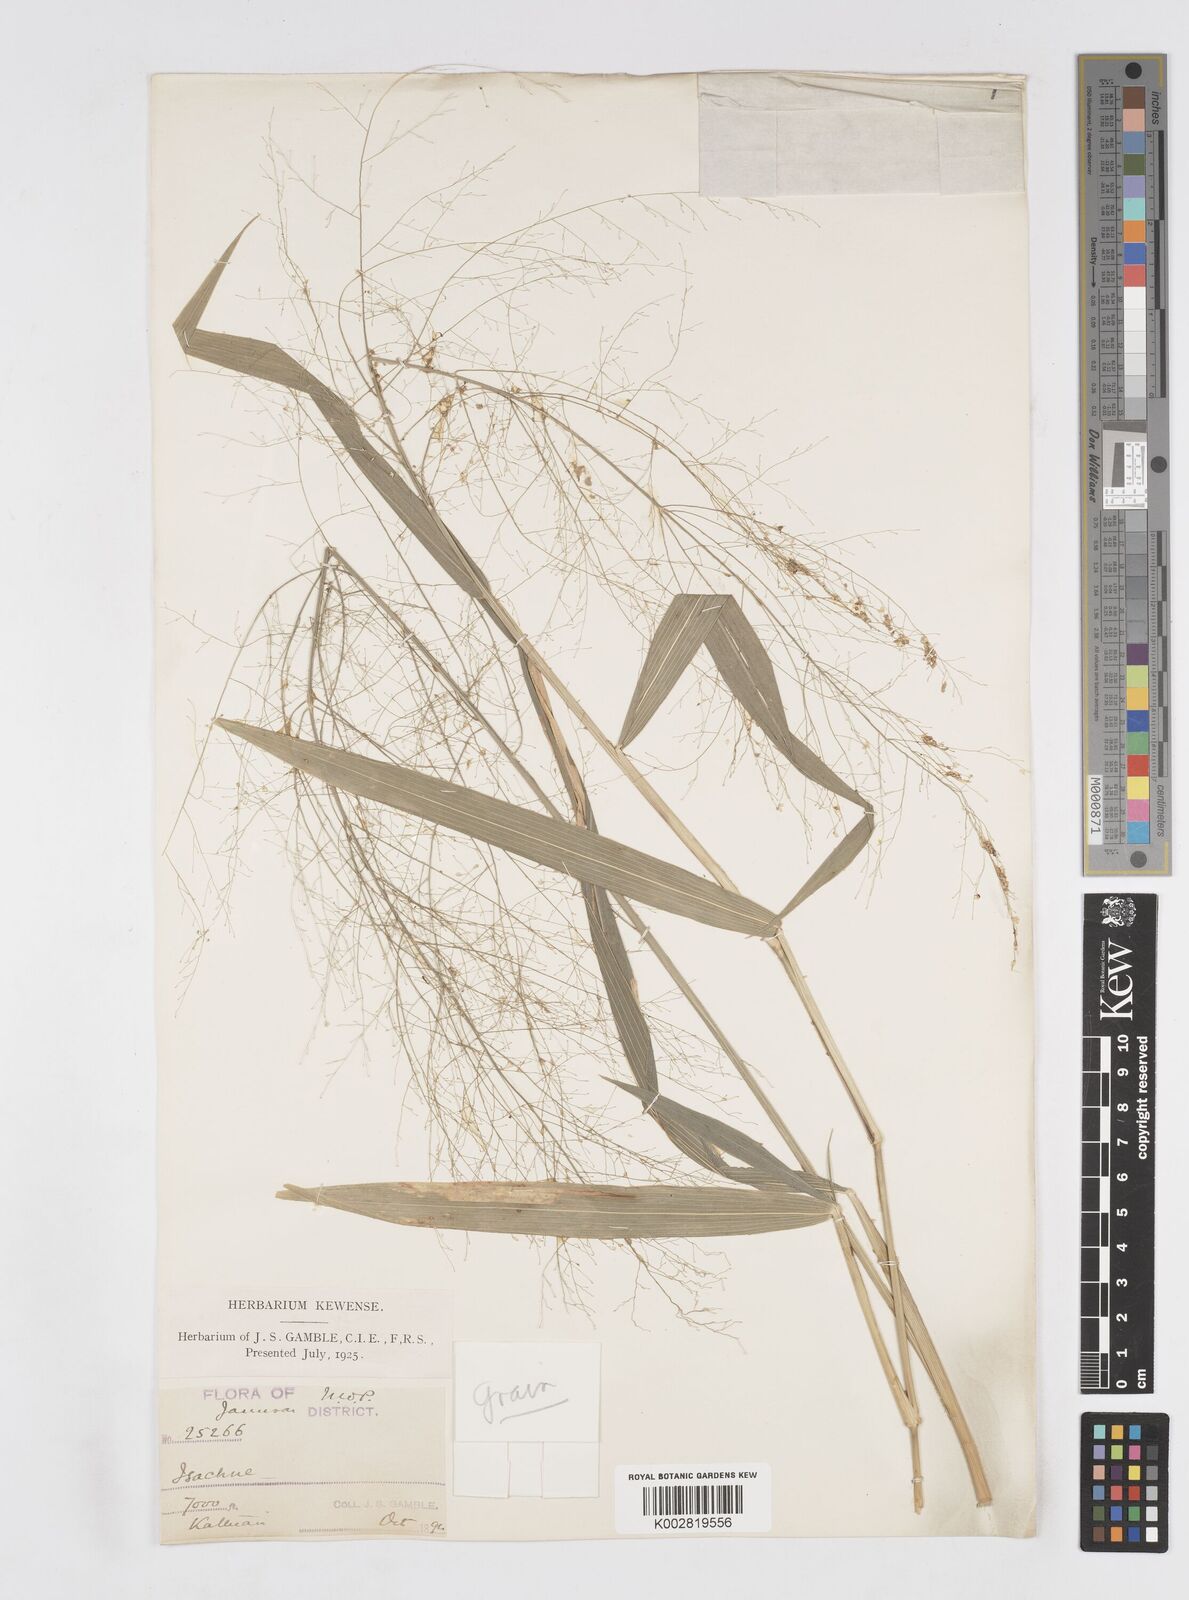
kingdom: Plantae
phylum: Tracheophyta
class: Liliopsida
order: Poales
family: Poaceae
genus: Isachne
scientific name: Isachne albens
